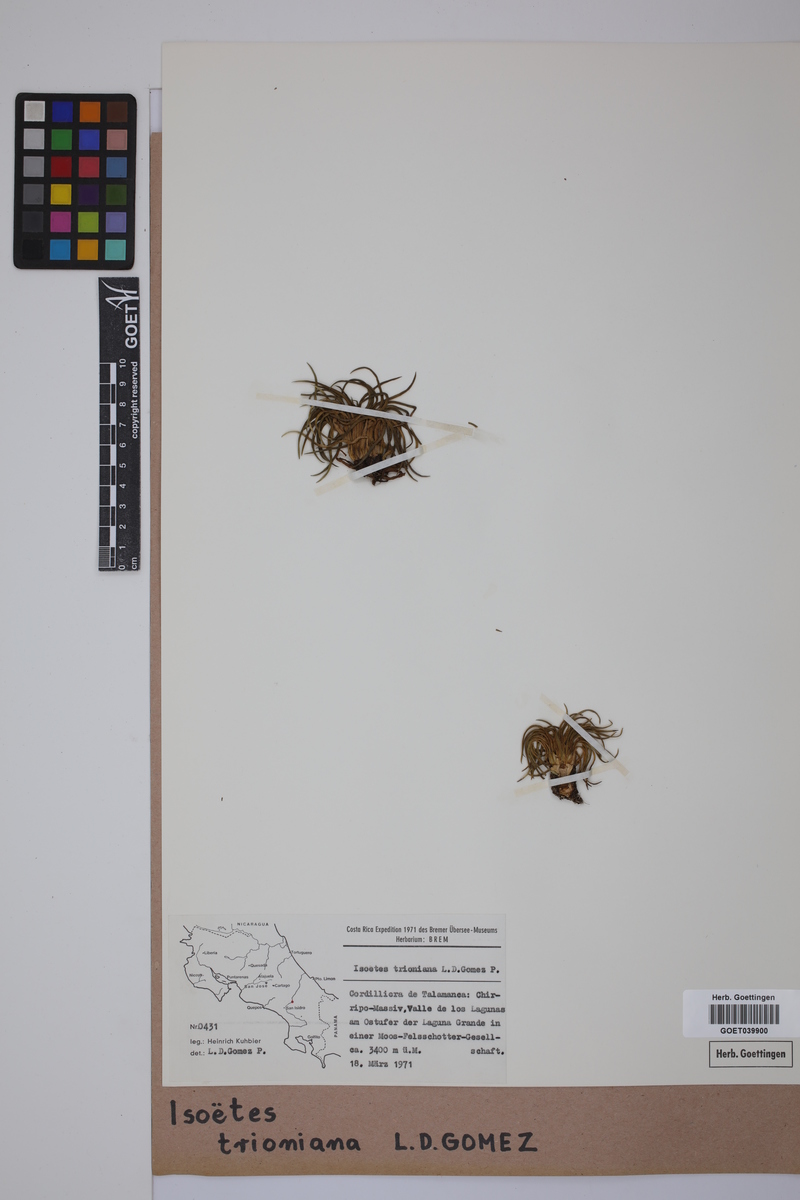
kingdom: Plantae
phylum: Tracheophyta
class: Lycopodiopsida
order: Isoetales
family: Isoetaceae
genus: Isoetes
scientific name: Isoetes storkii
